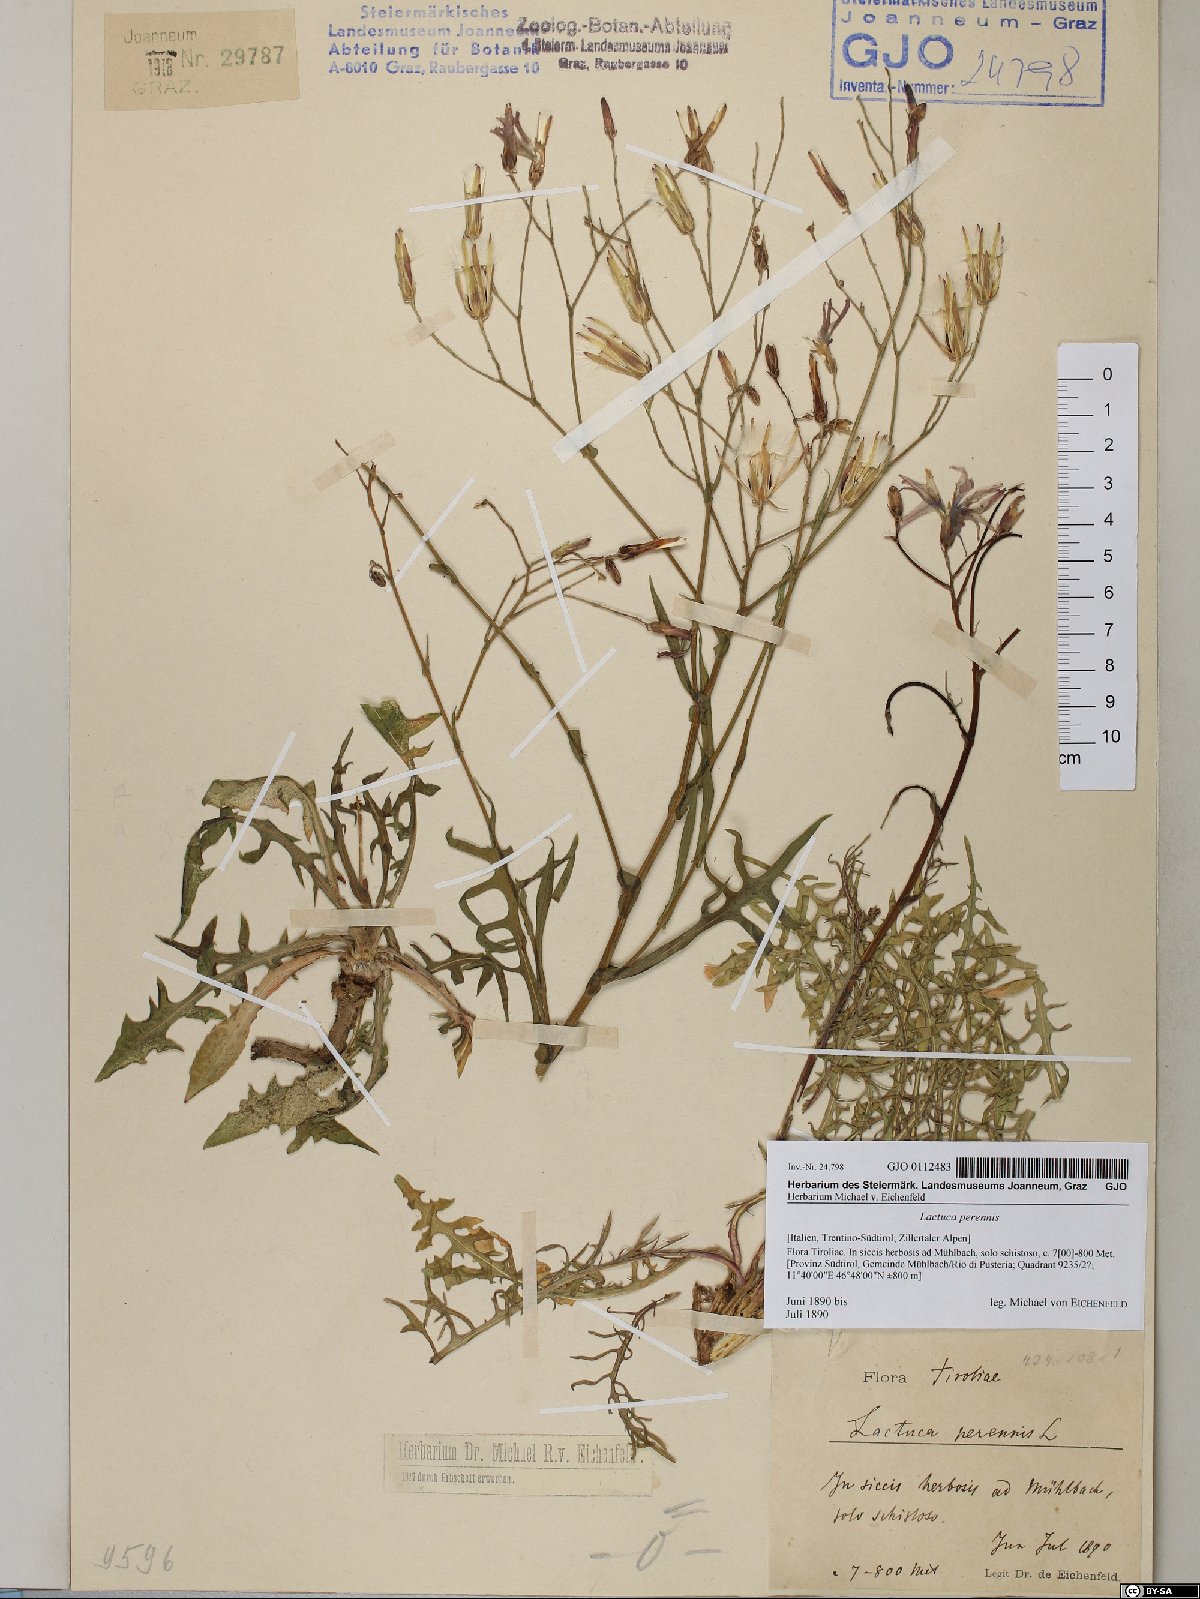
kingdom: Plantae
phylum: Tracheophyta
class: Magnoliopsida
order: Asterales
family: Asteraceae
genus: Lactuca
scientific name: Lactuca perennis
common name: Mountain lettuce
